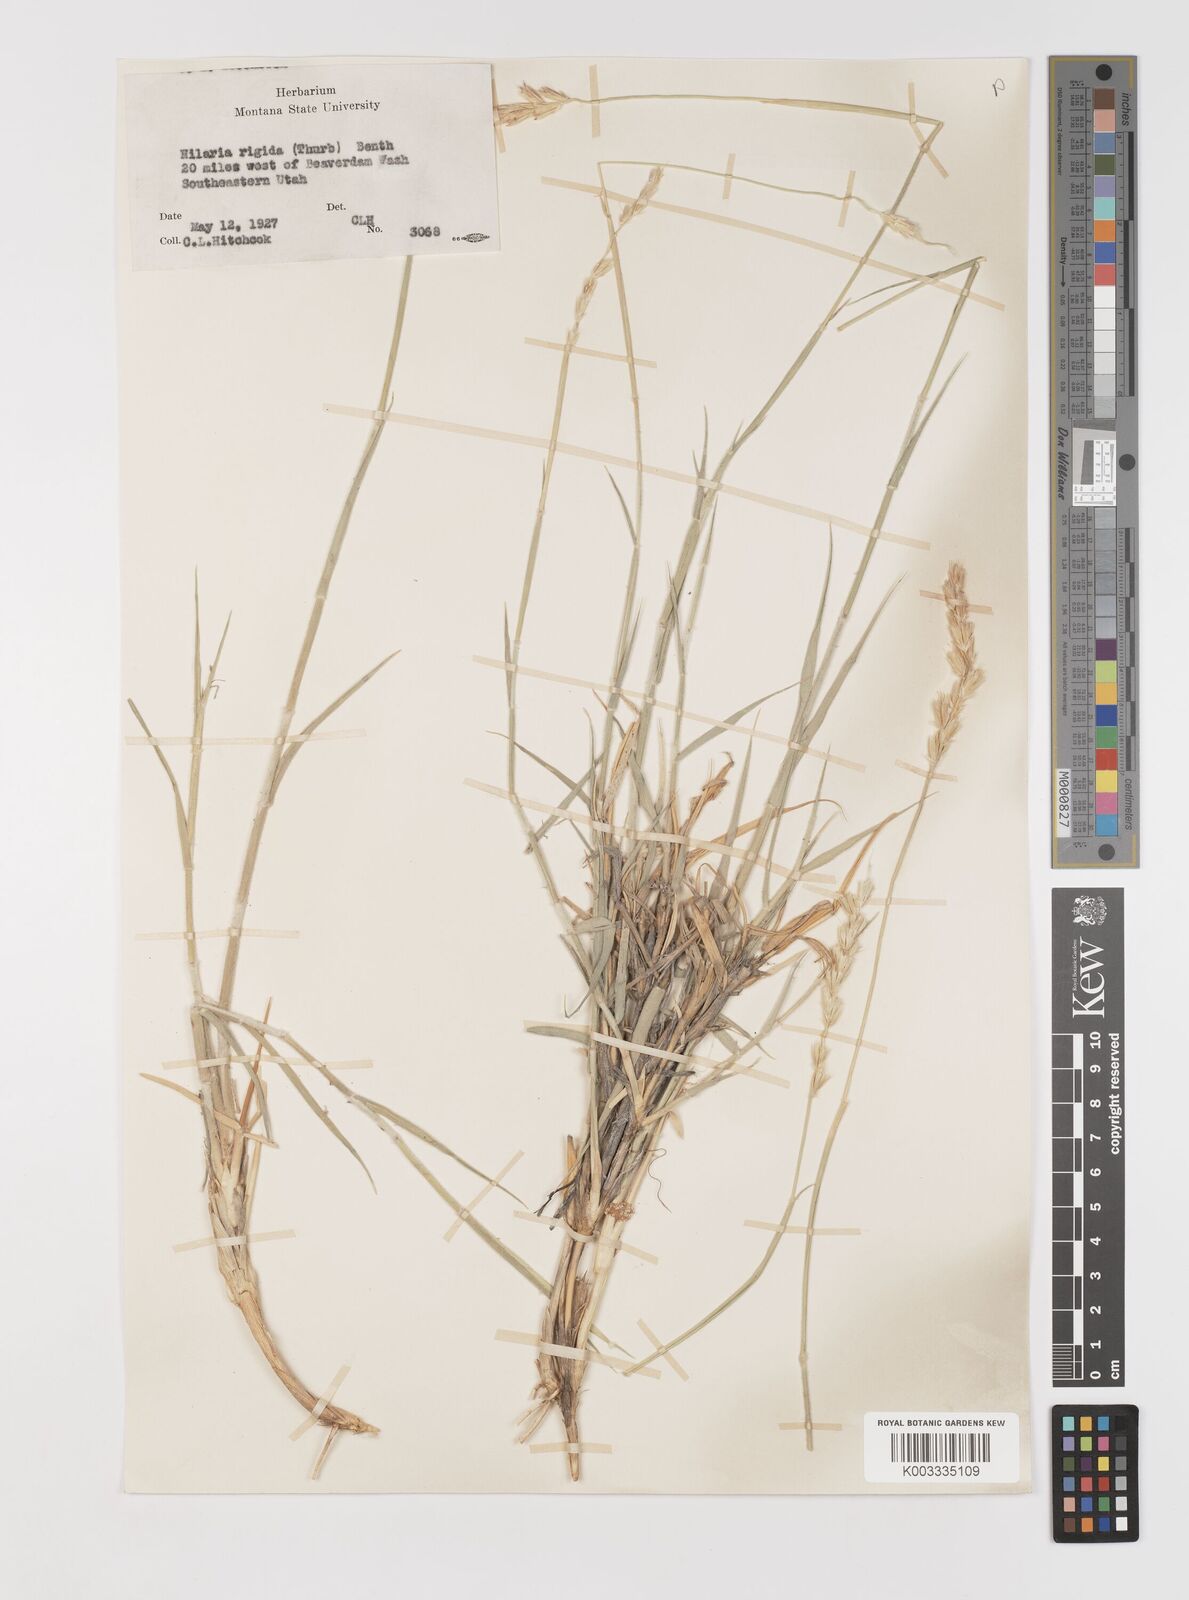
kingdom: Plantae
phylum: Tracheophyta
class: Liliopsida
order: Poales
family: Poaceae
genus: Hilaria
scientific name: Hilaria rigida
